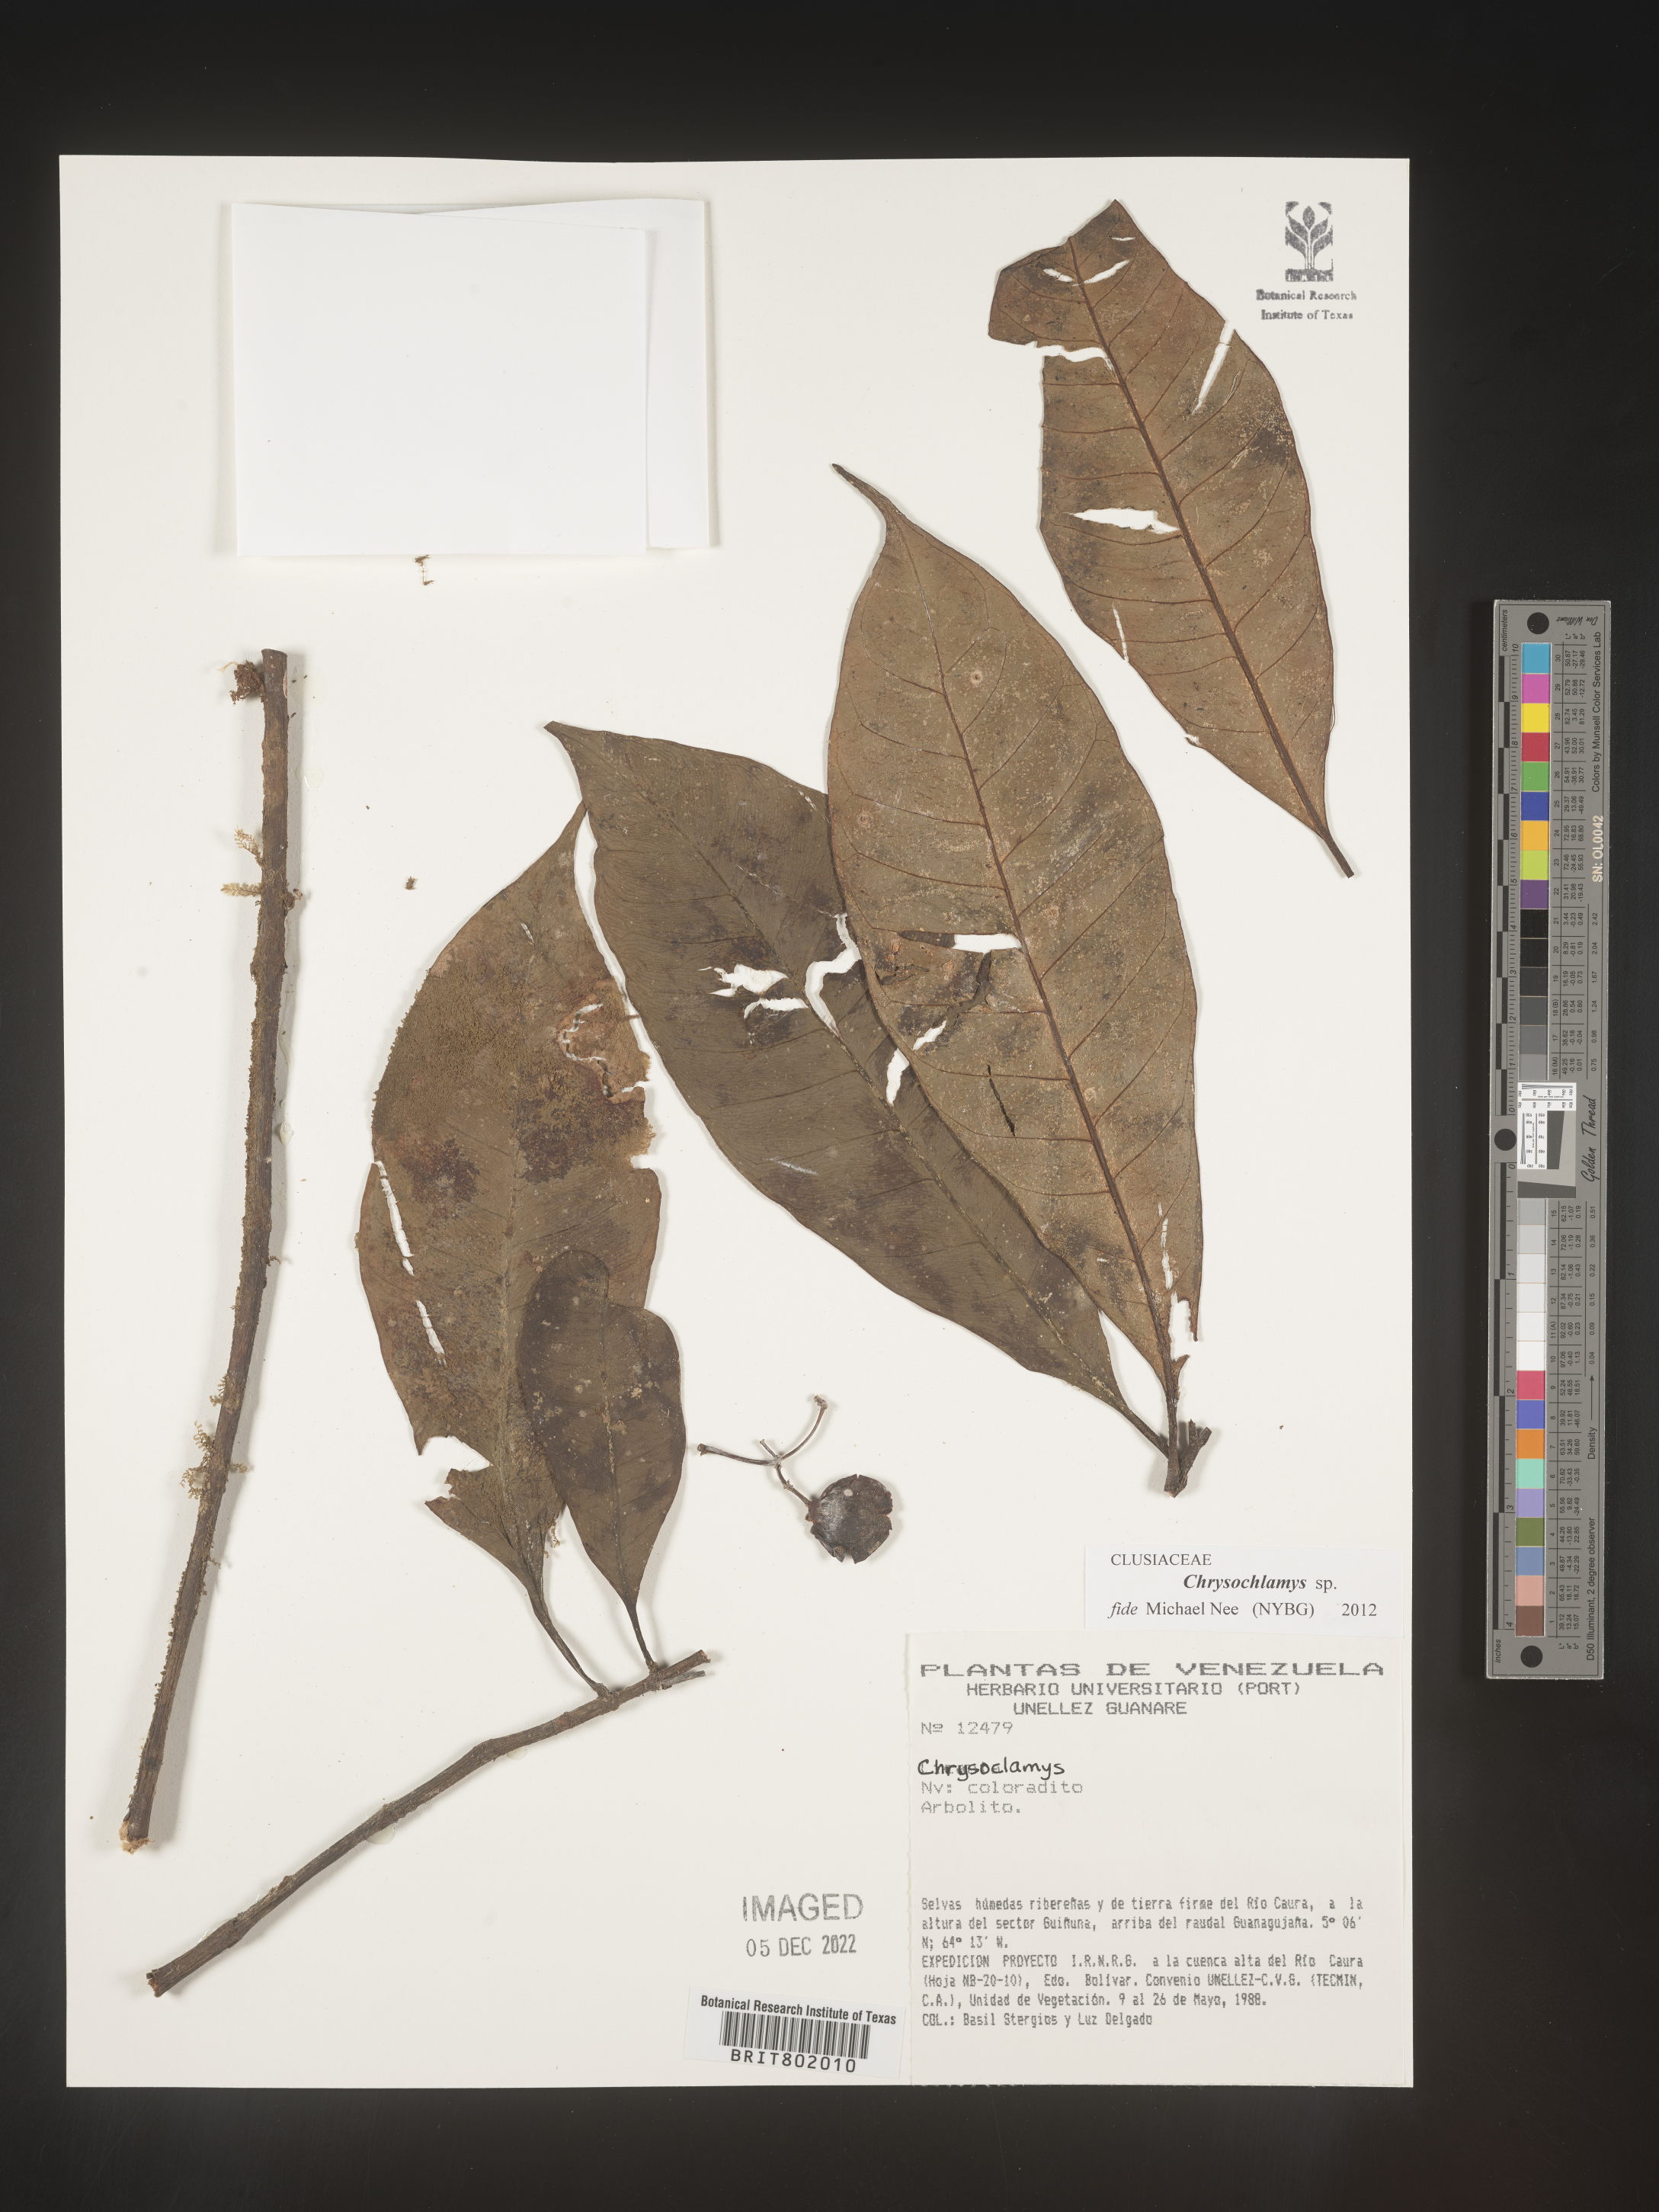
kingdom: Plantae
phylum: Tracheophyta
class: Magnoliopsida
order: Malpighiales
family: Clusiaceae
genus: Chrysochlamys
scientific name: Chrysochlamys
